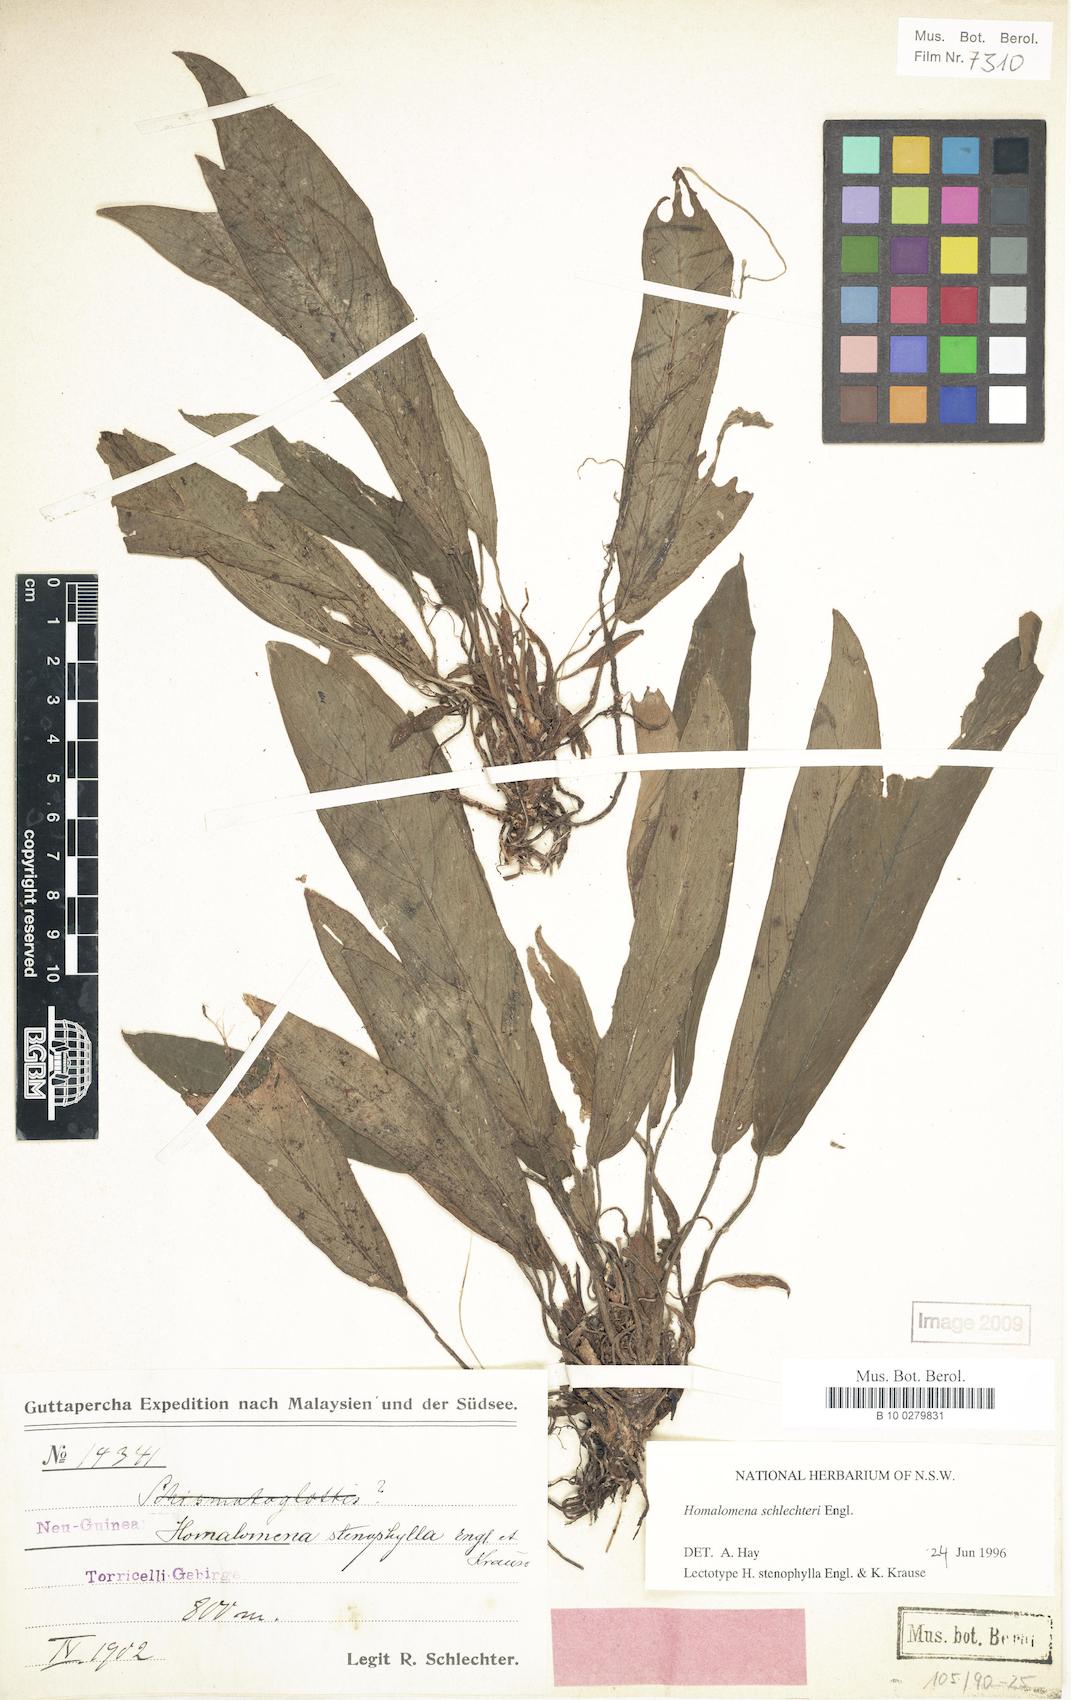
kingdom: Plantae
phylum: Tracheophyta
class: Liliopsida
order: Alismatales
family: Araceae
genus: Homalomena
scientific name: Homalomena schlechteri
